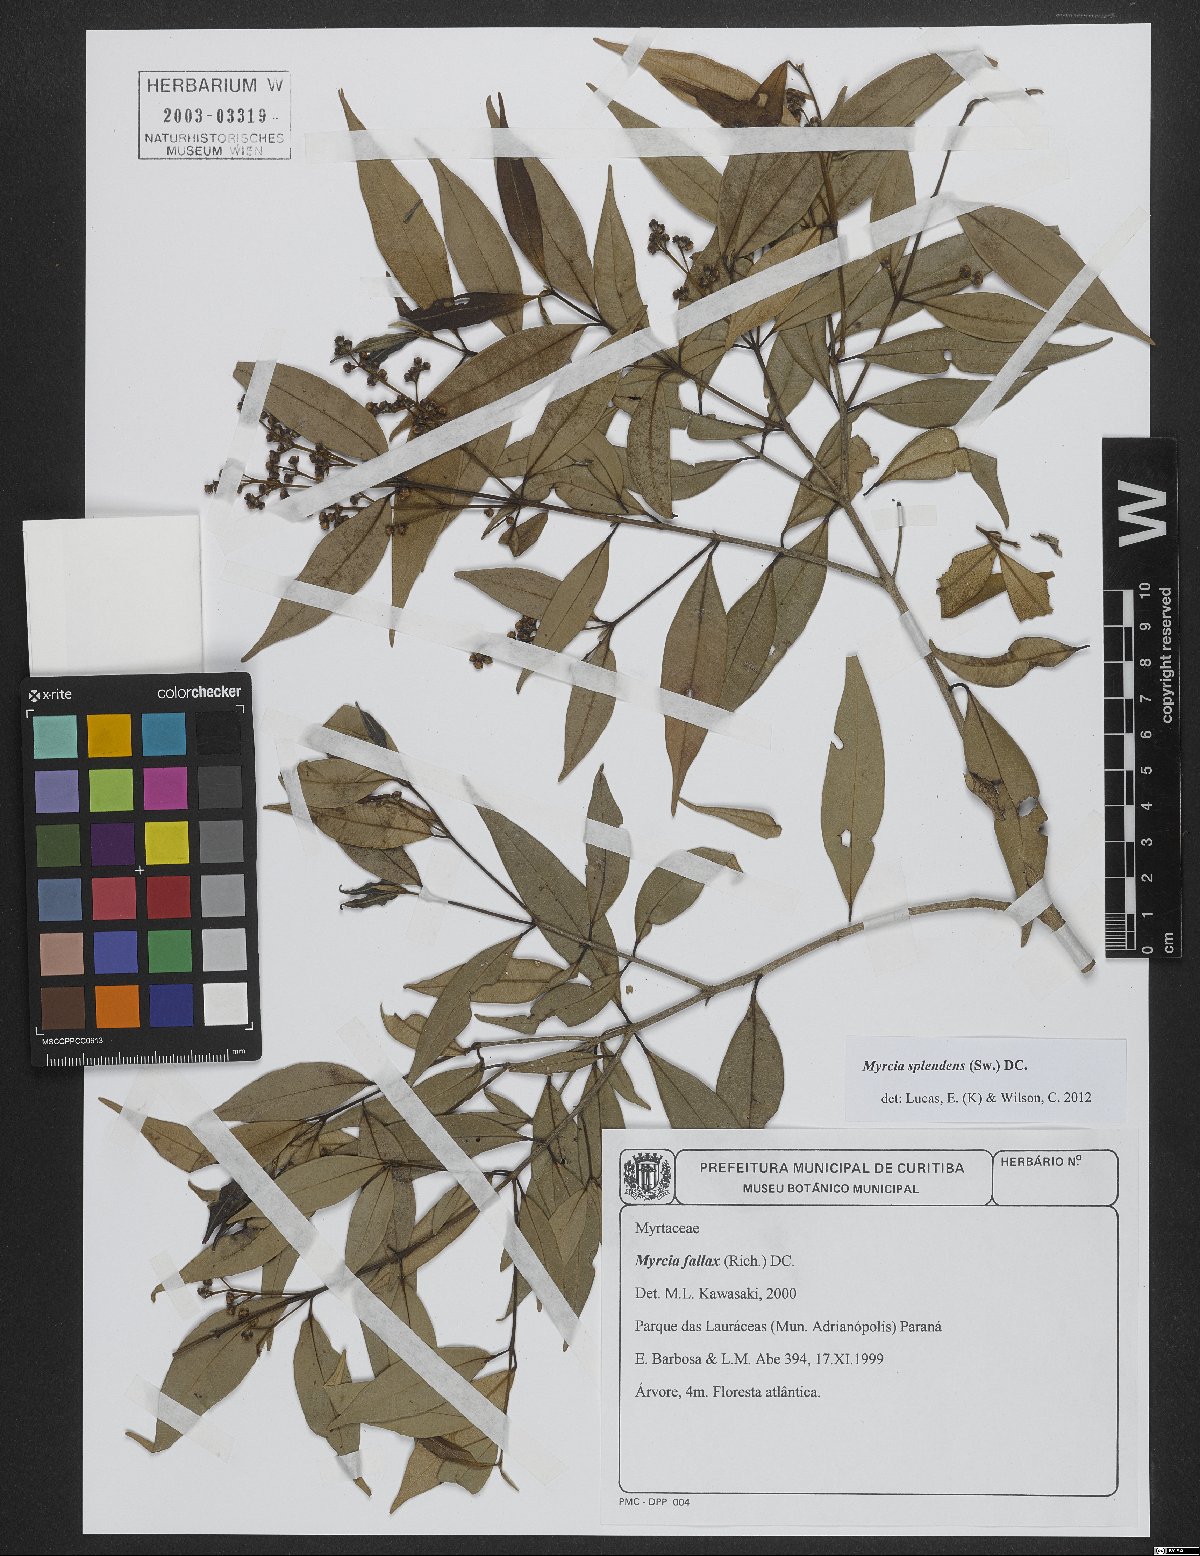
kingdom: Plantae
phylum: Tracheophyta
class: Magnoliopsida
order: Myrtales
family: Myrtaceae
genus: Myrcia
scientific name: Myrcia splendens
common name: Surinam cherry
